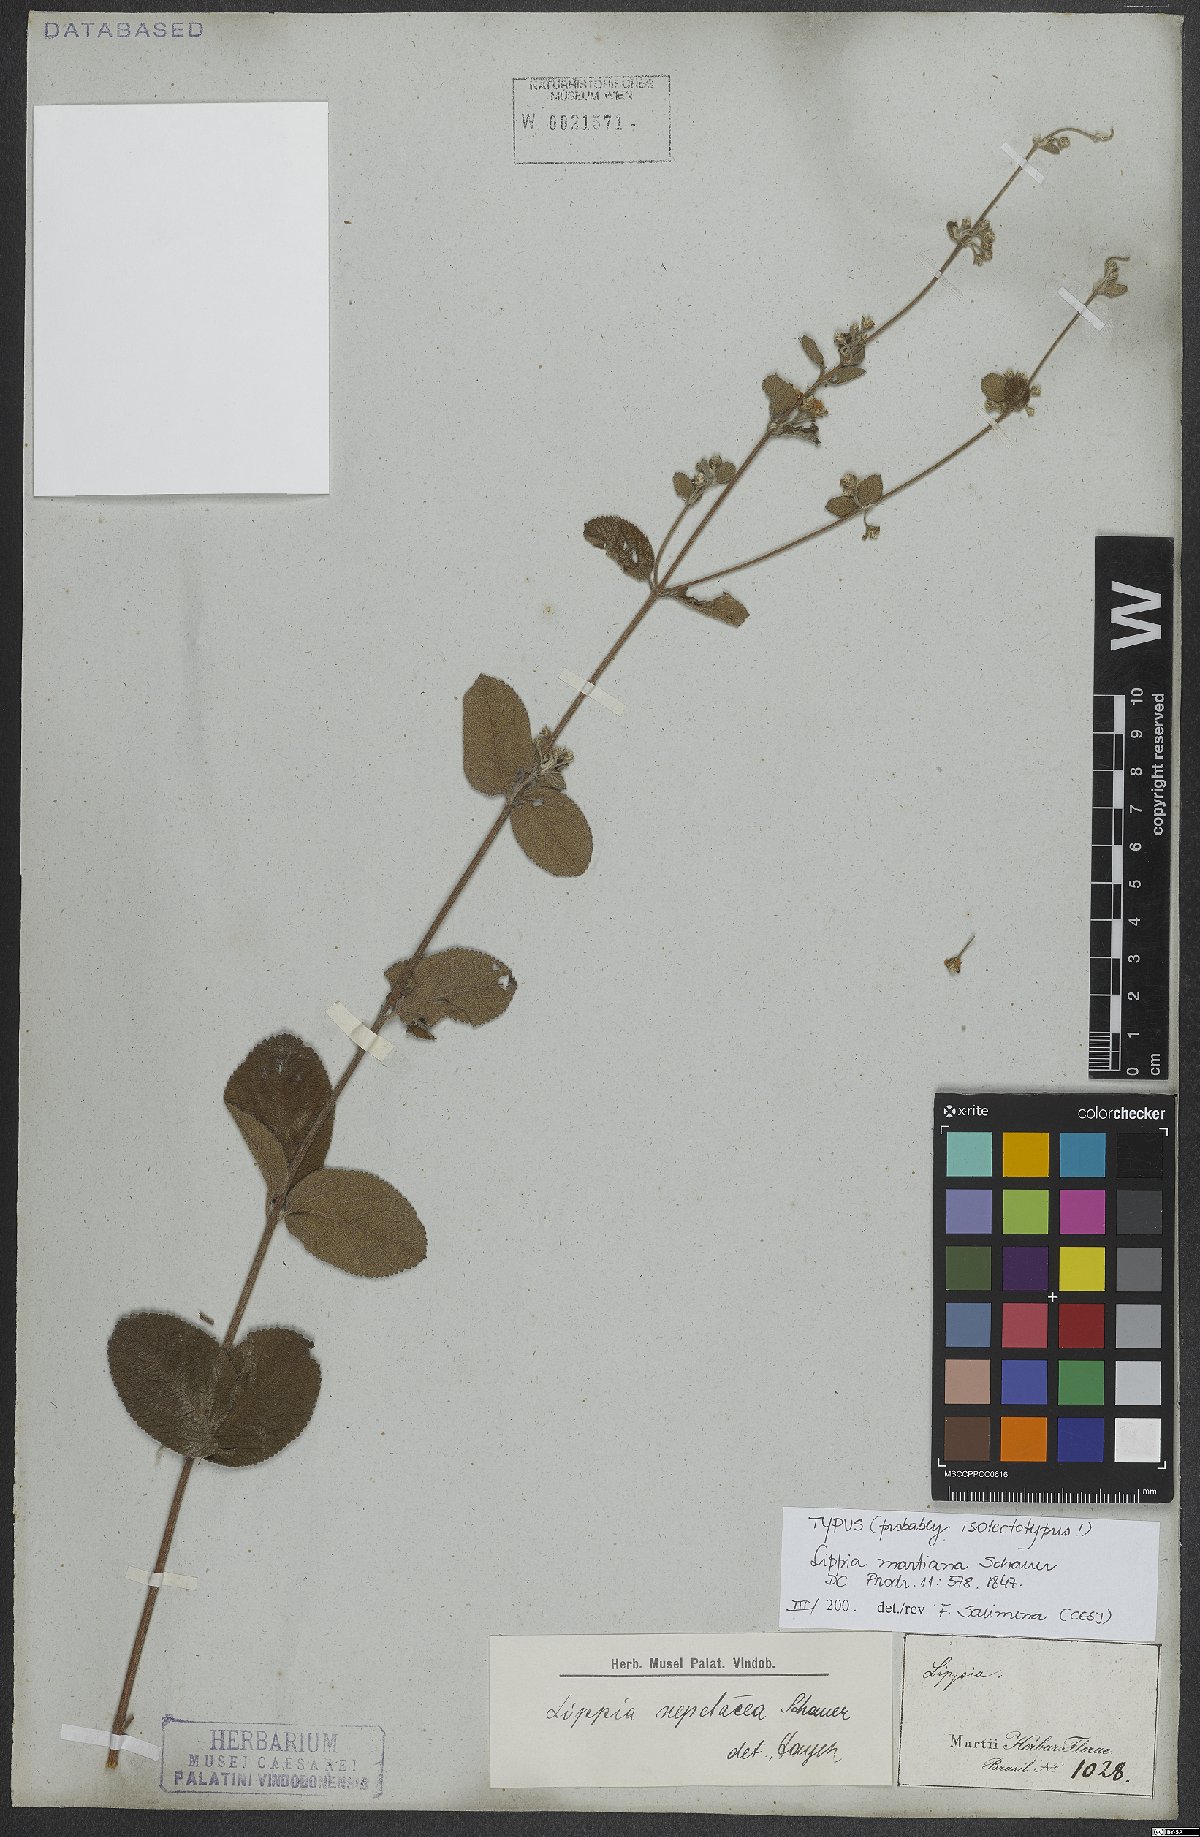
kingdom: Plantae
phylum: Tracheophyta
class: Magnoliopsida
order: Lamiales
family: Verbenaceae
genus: Lippia
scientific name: Lippia martiana
